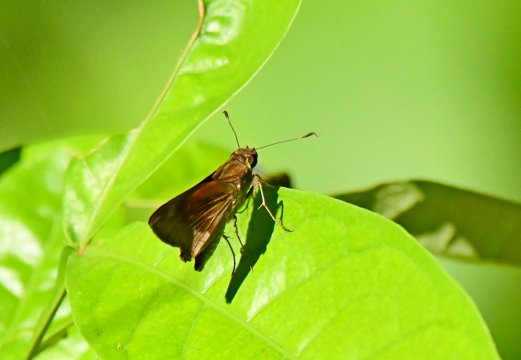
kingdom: Animalia
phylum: Arthropoda
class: Insecta
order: Lepidoptera
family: Hesperiidae
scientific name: Hesperiidae
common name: Skippers
